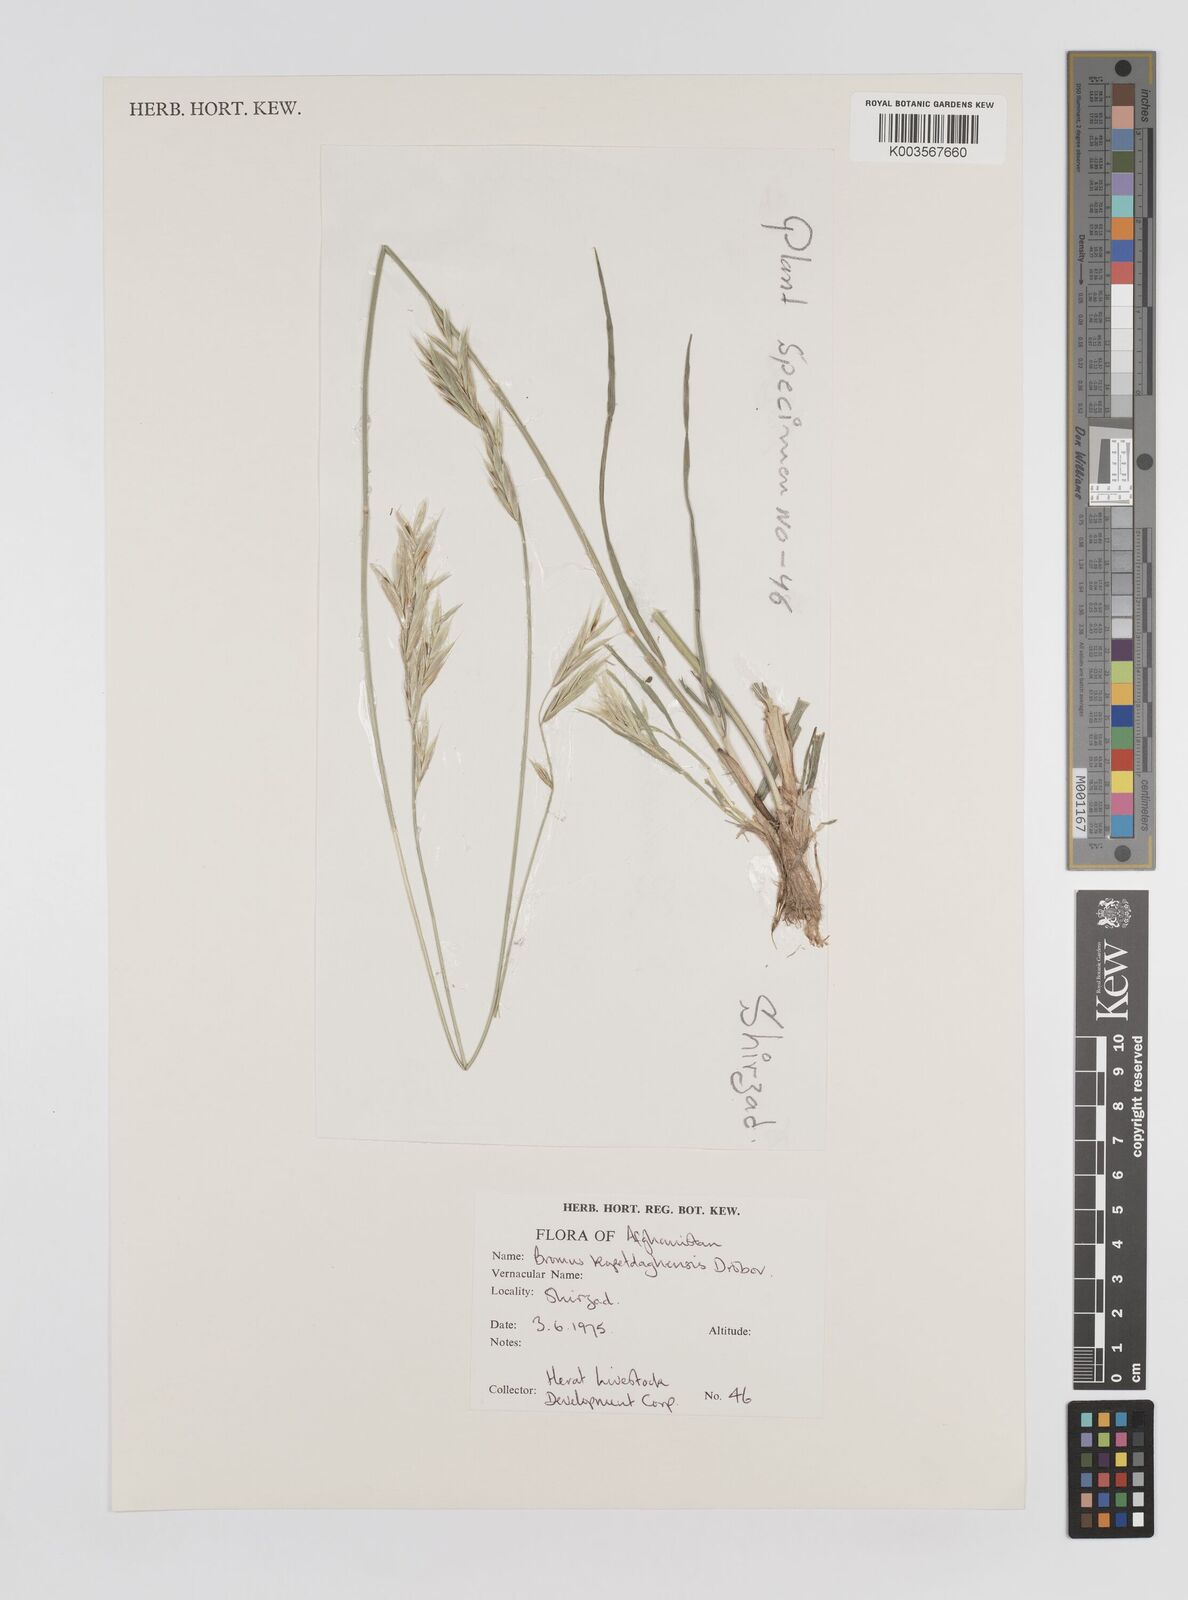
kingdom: Plantae
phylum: Tracheophyta
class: Liliopsida
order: Poales
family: Poaceae
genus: Bromus
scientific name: Bromus kopetdagensis
